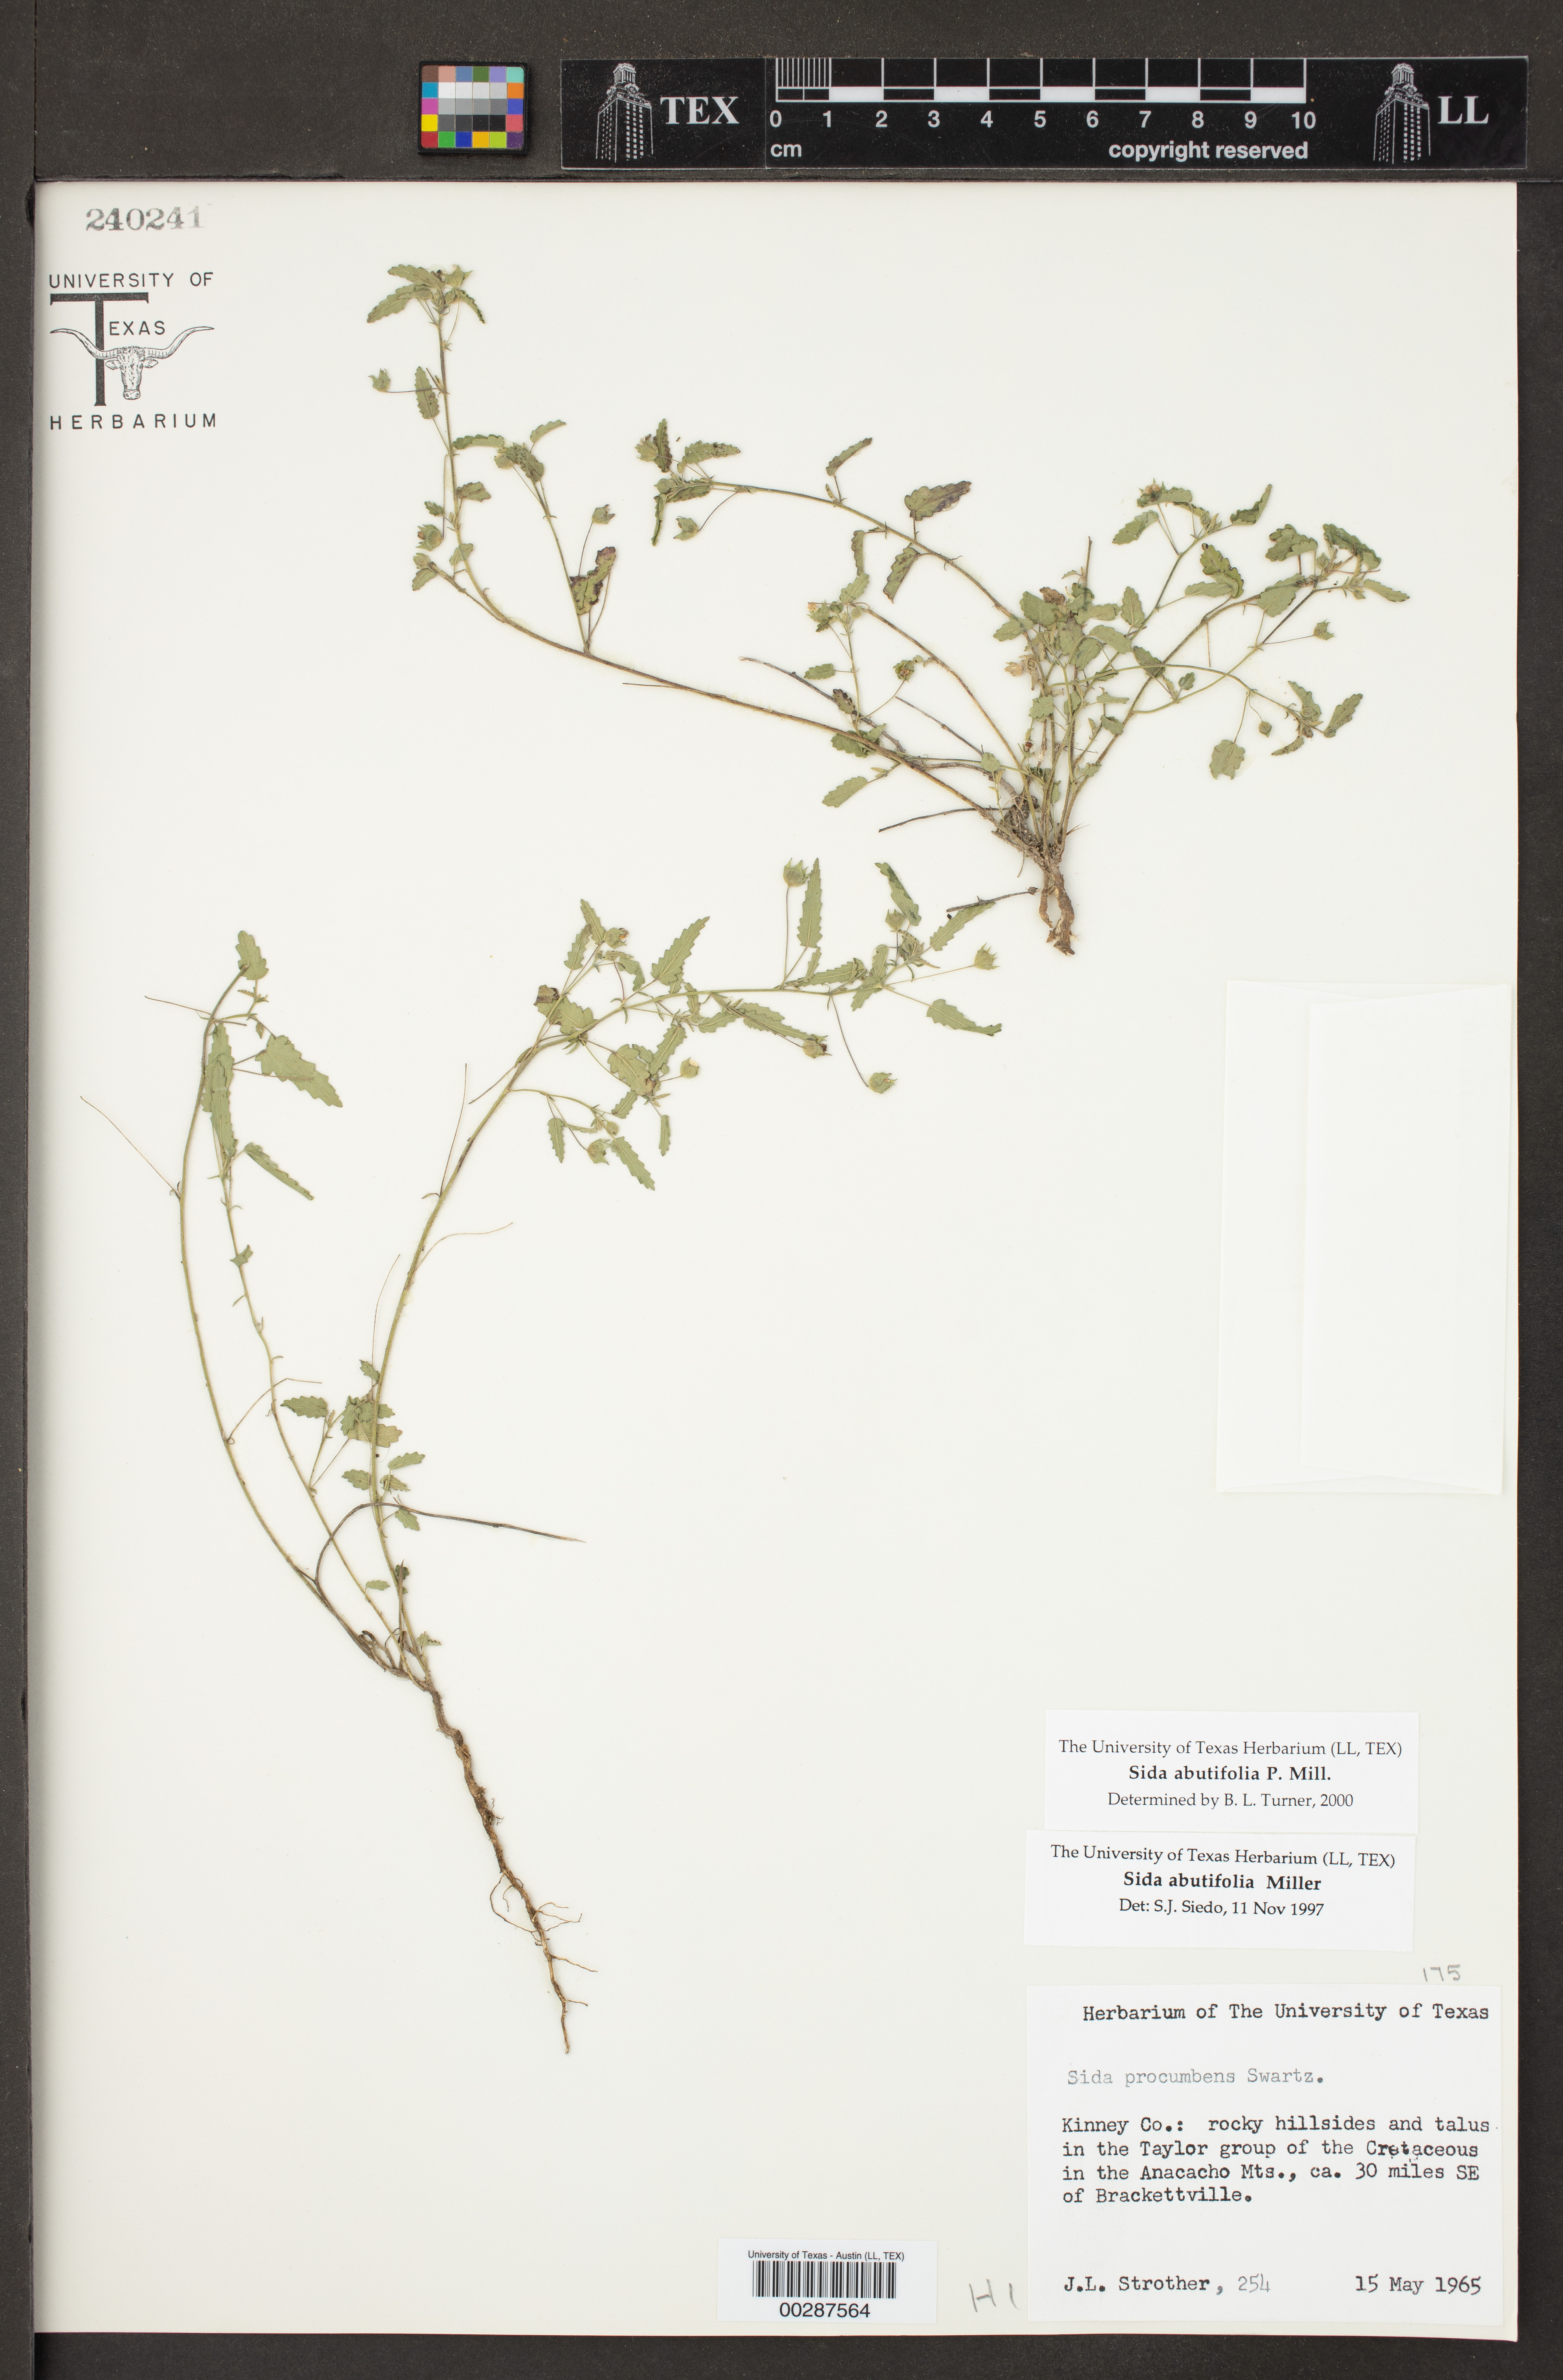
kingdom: Plantae
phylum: Tracheophyta
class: Magnoliopsida
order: Malvales
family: Malvaceae
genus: Sida
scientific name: Sida abutilifolia
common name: Spreading fanpetals
